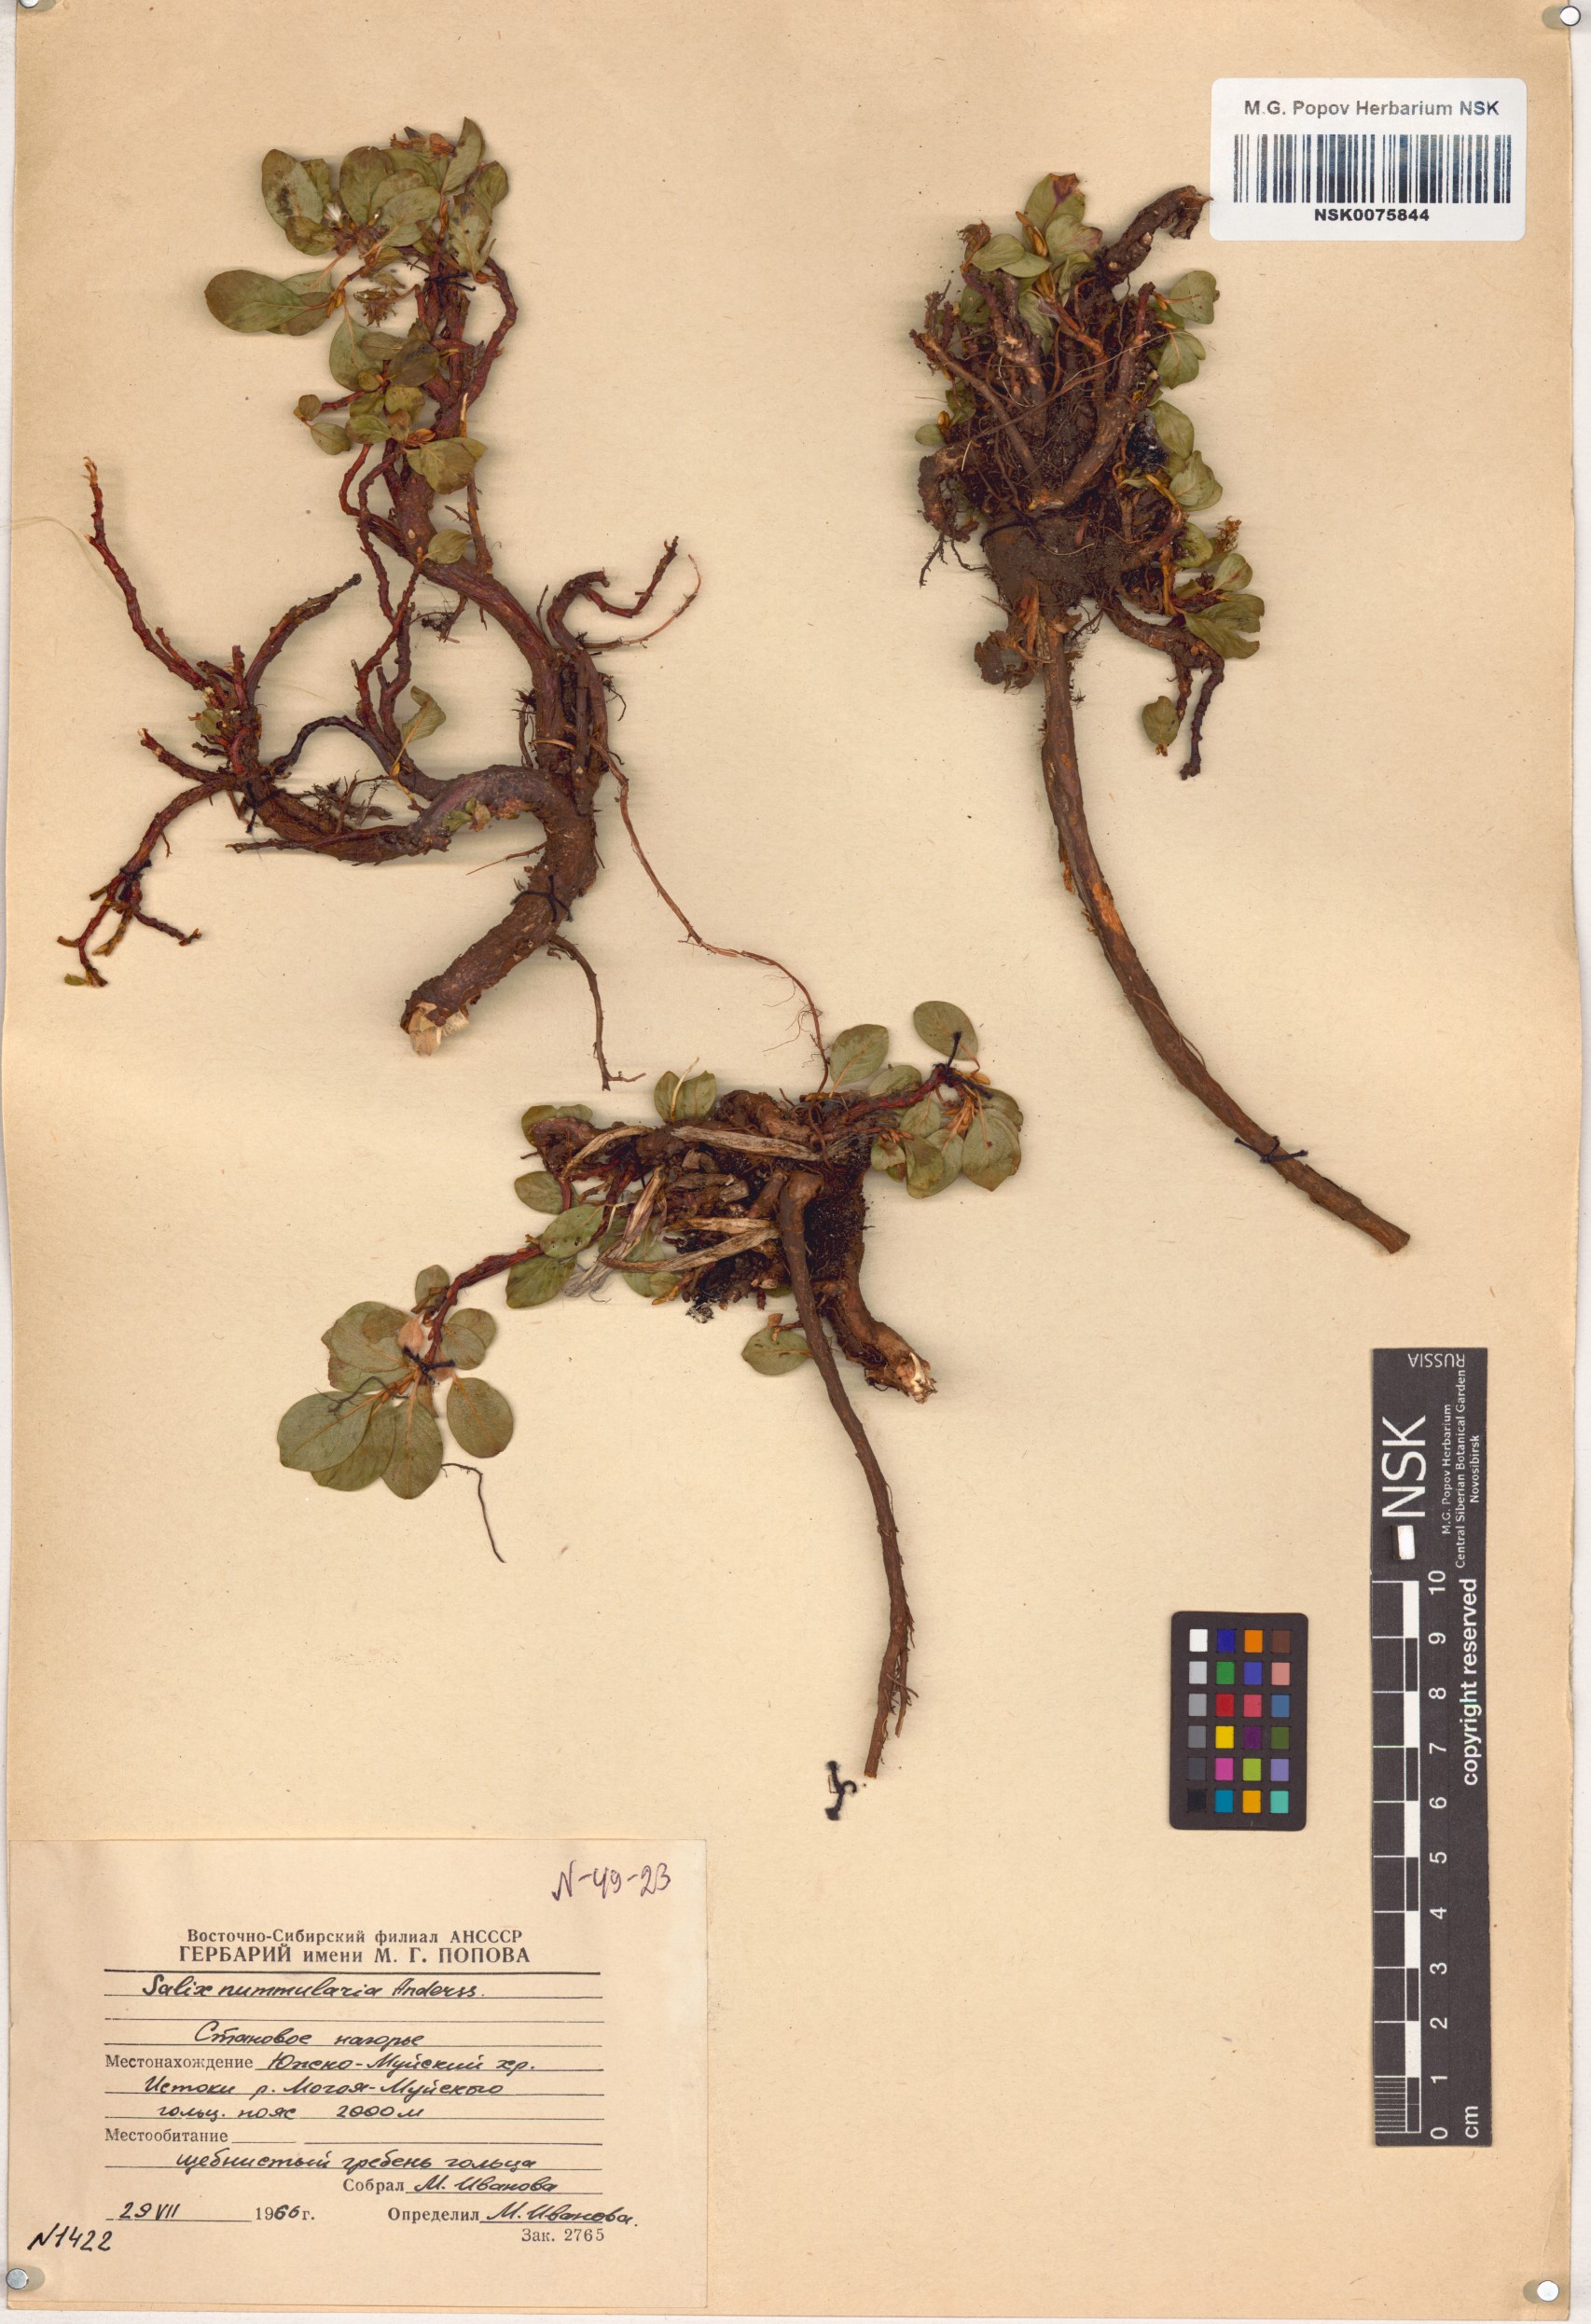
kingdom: Plantae
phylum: Tracheophyta
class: Magnoliopsida
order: Malpighiales
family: Salicaceae
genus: Salix
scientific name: Salix nummularia
